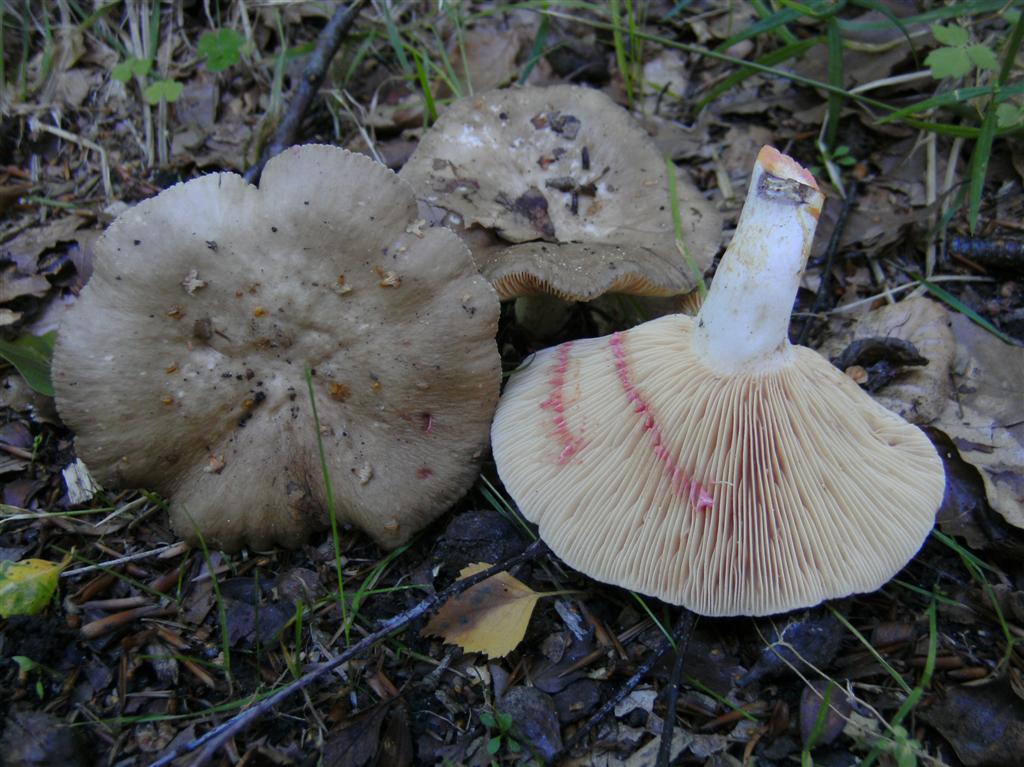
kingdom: Fungi
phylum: Basidiomycota
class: Agaricomycetes
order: Russulales
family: Russulaceae
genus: Lactarius
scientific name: Lactarius acris
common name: rosamælket mælkehat
